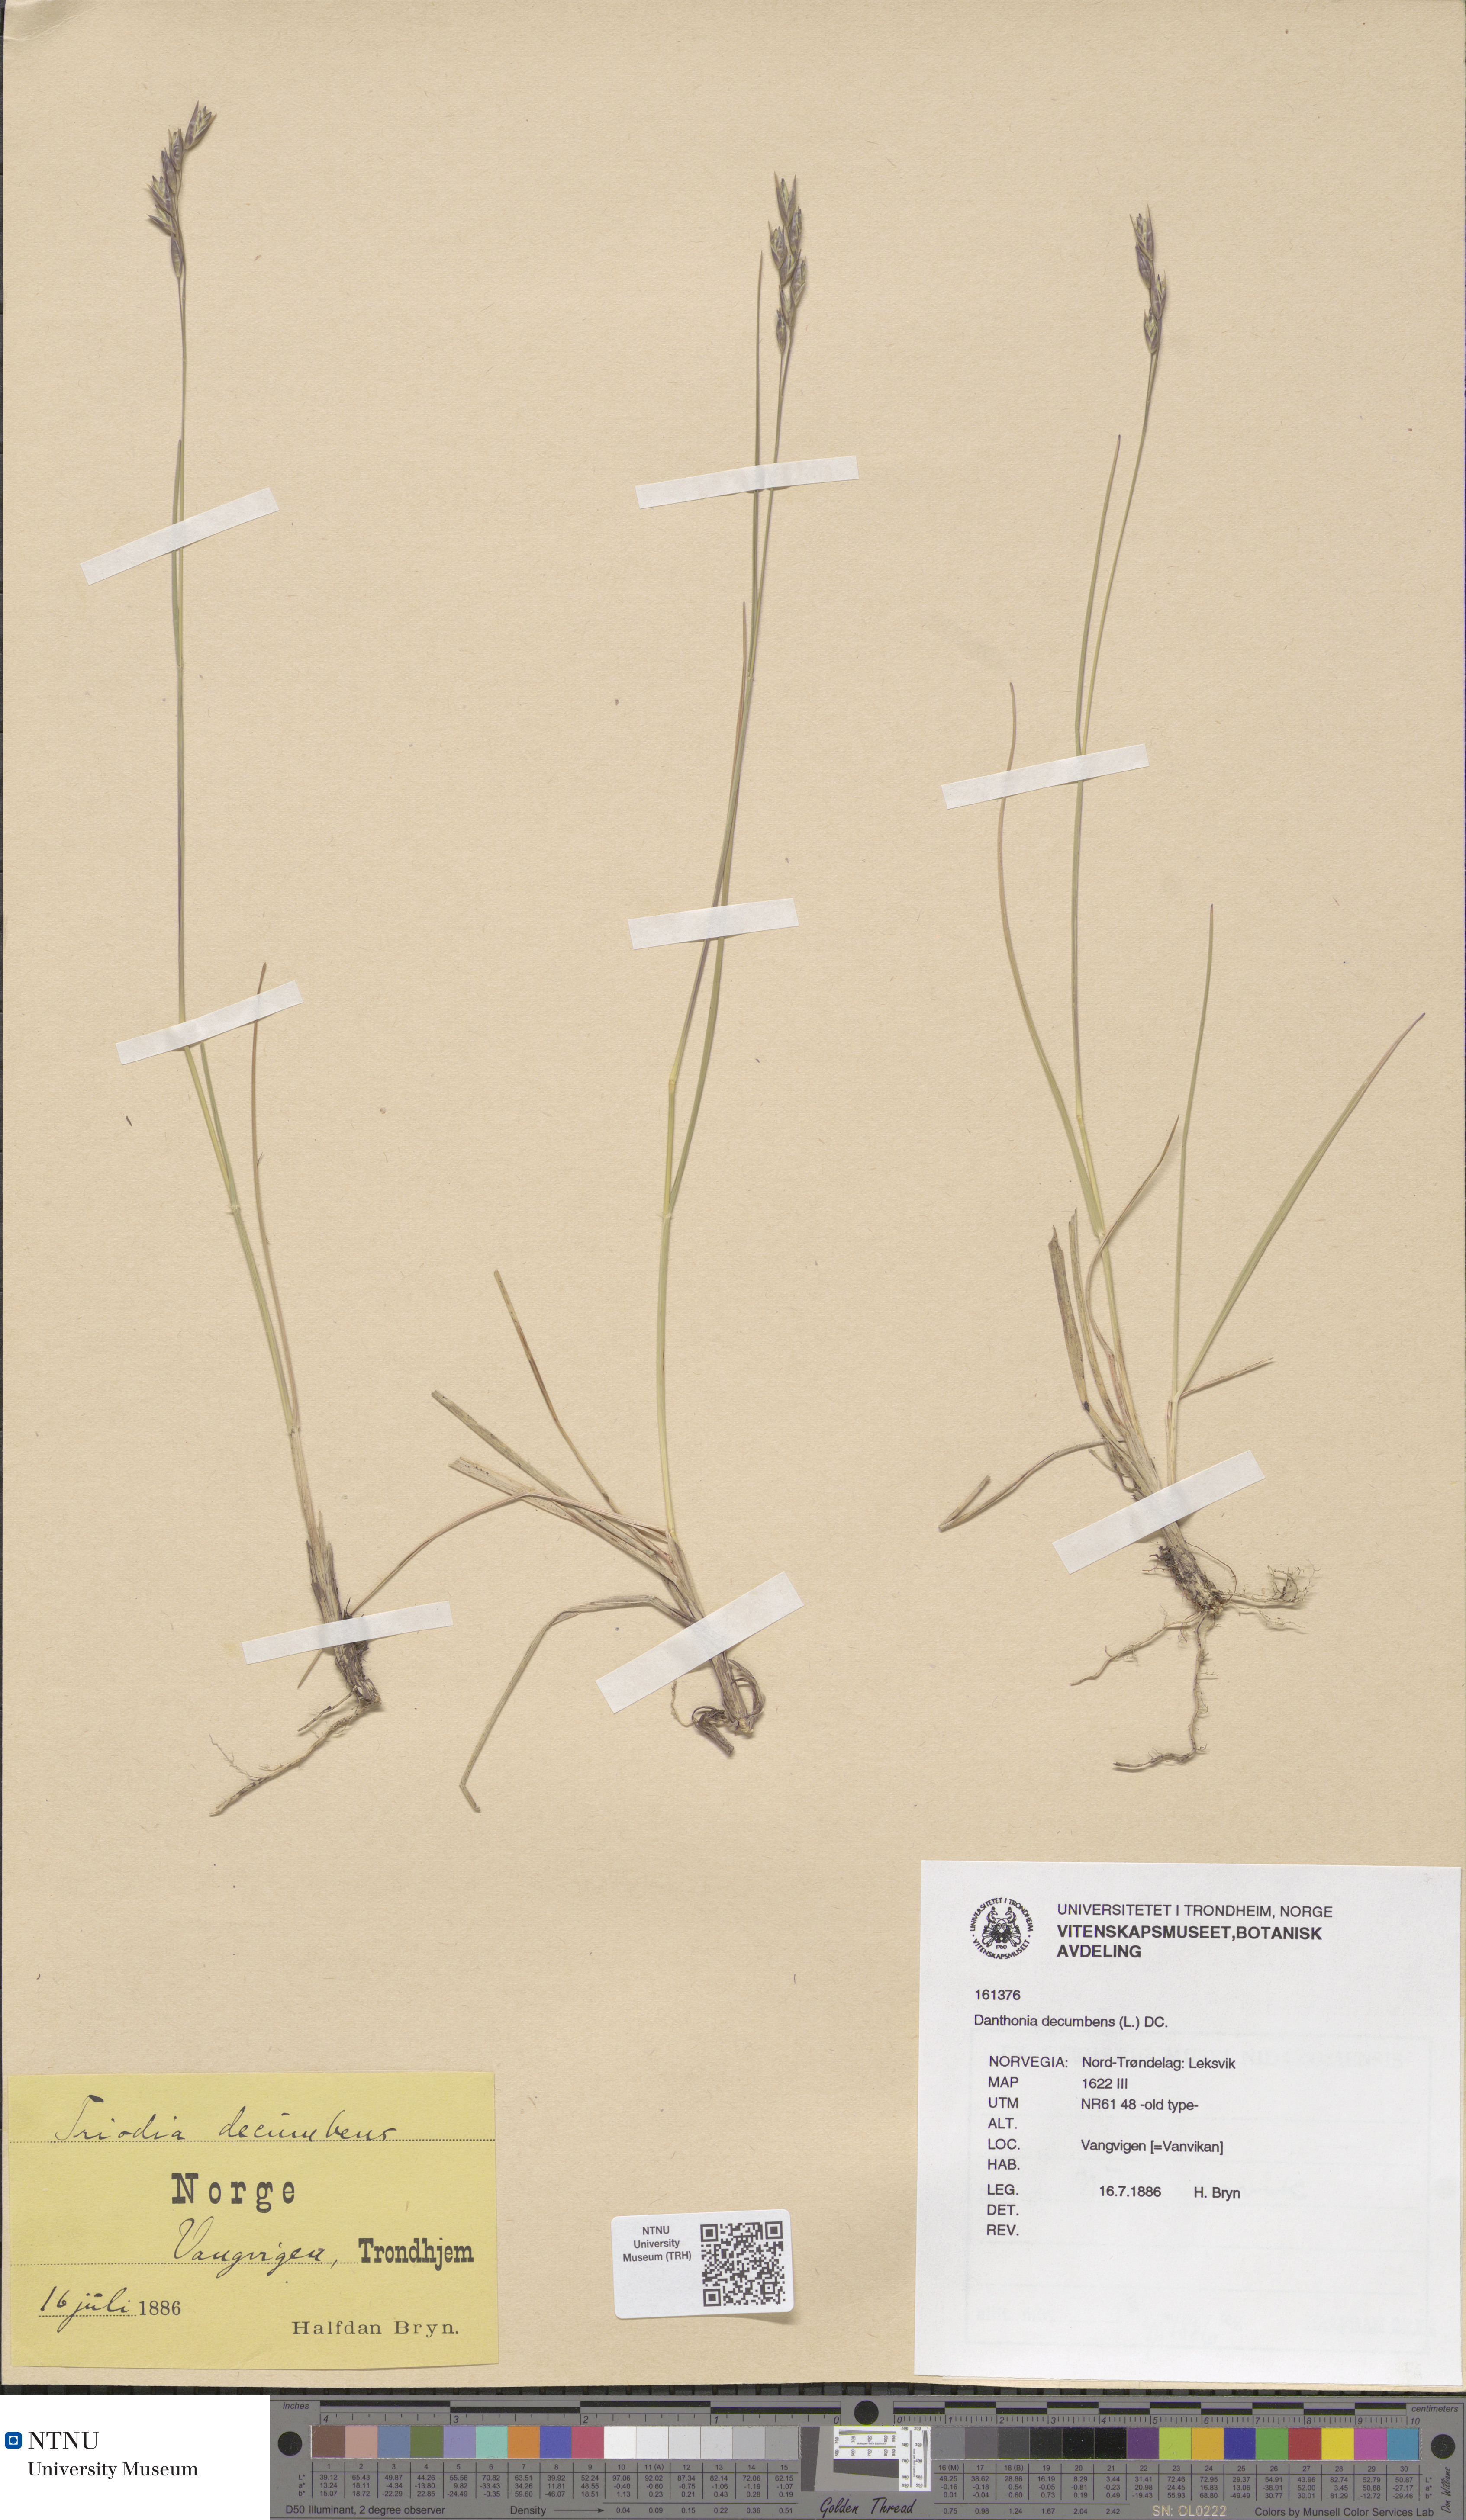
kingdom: Plantae
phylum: Tracheophyta
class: Liliopsida
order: Poales
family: Poaceae
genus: Danthonia
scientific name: Danthonia decumbens
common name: Common heathgrass
